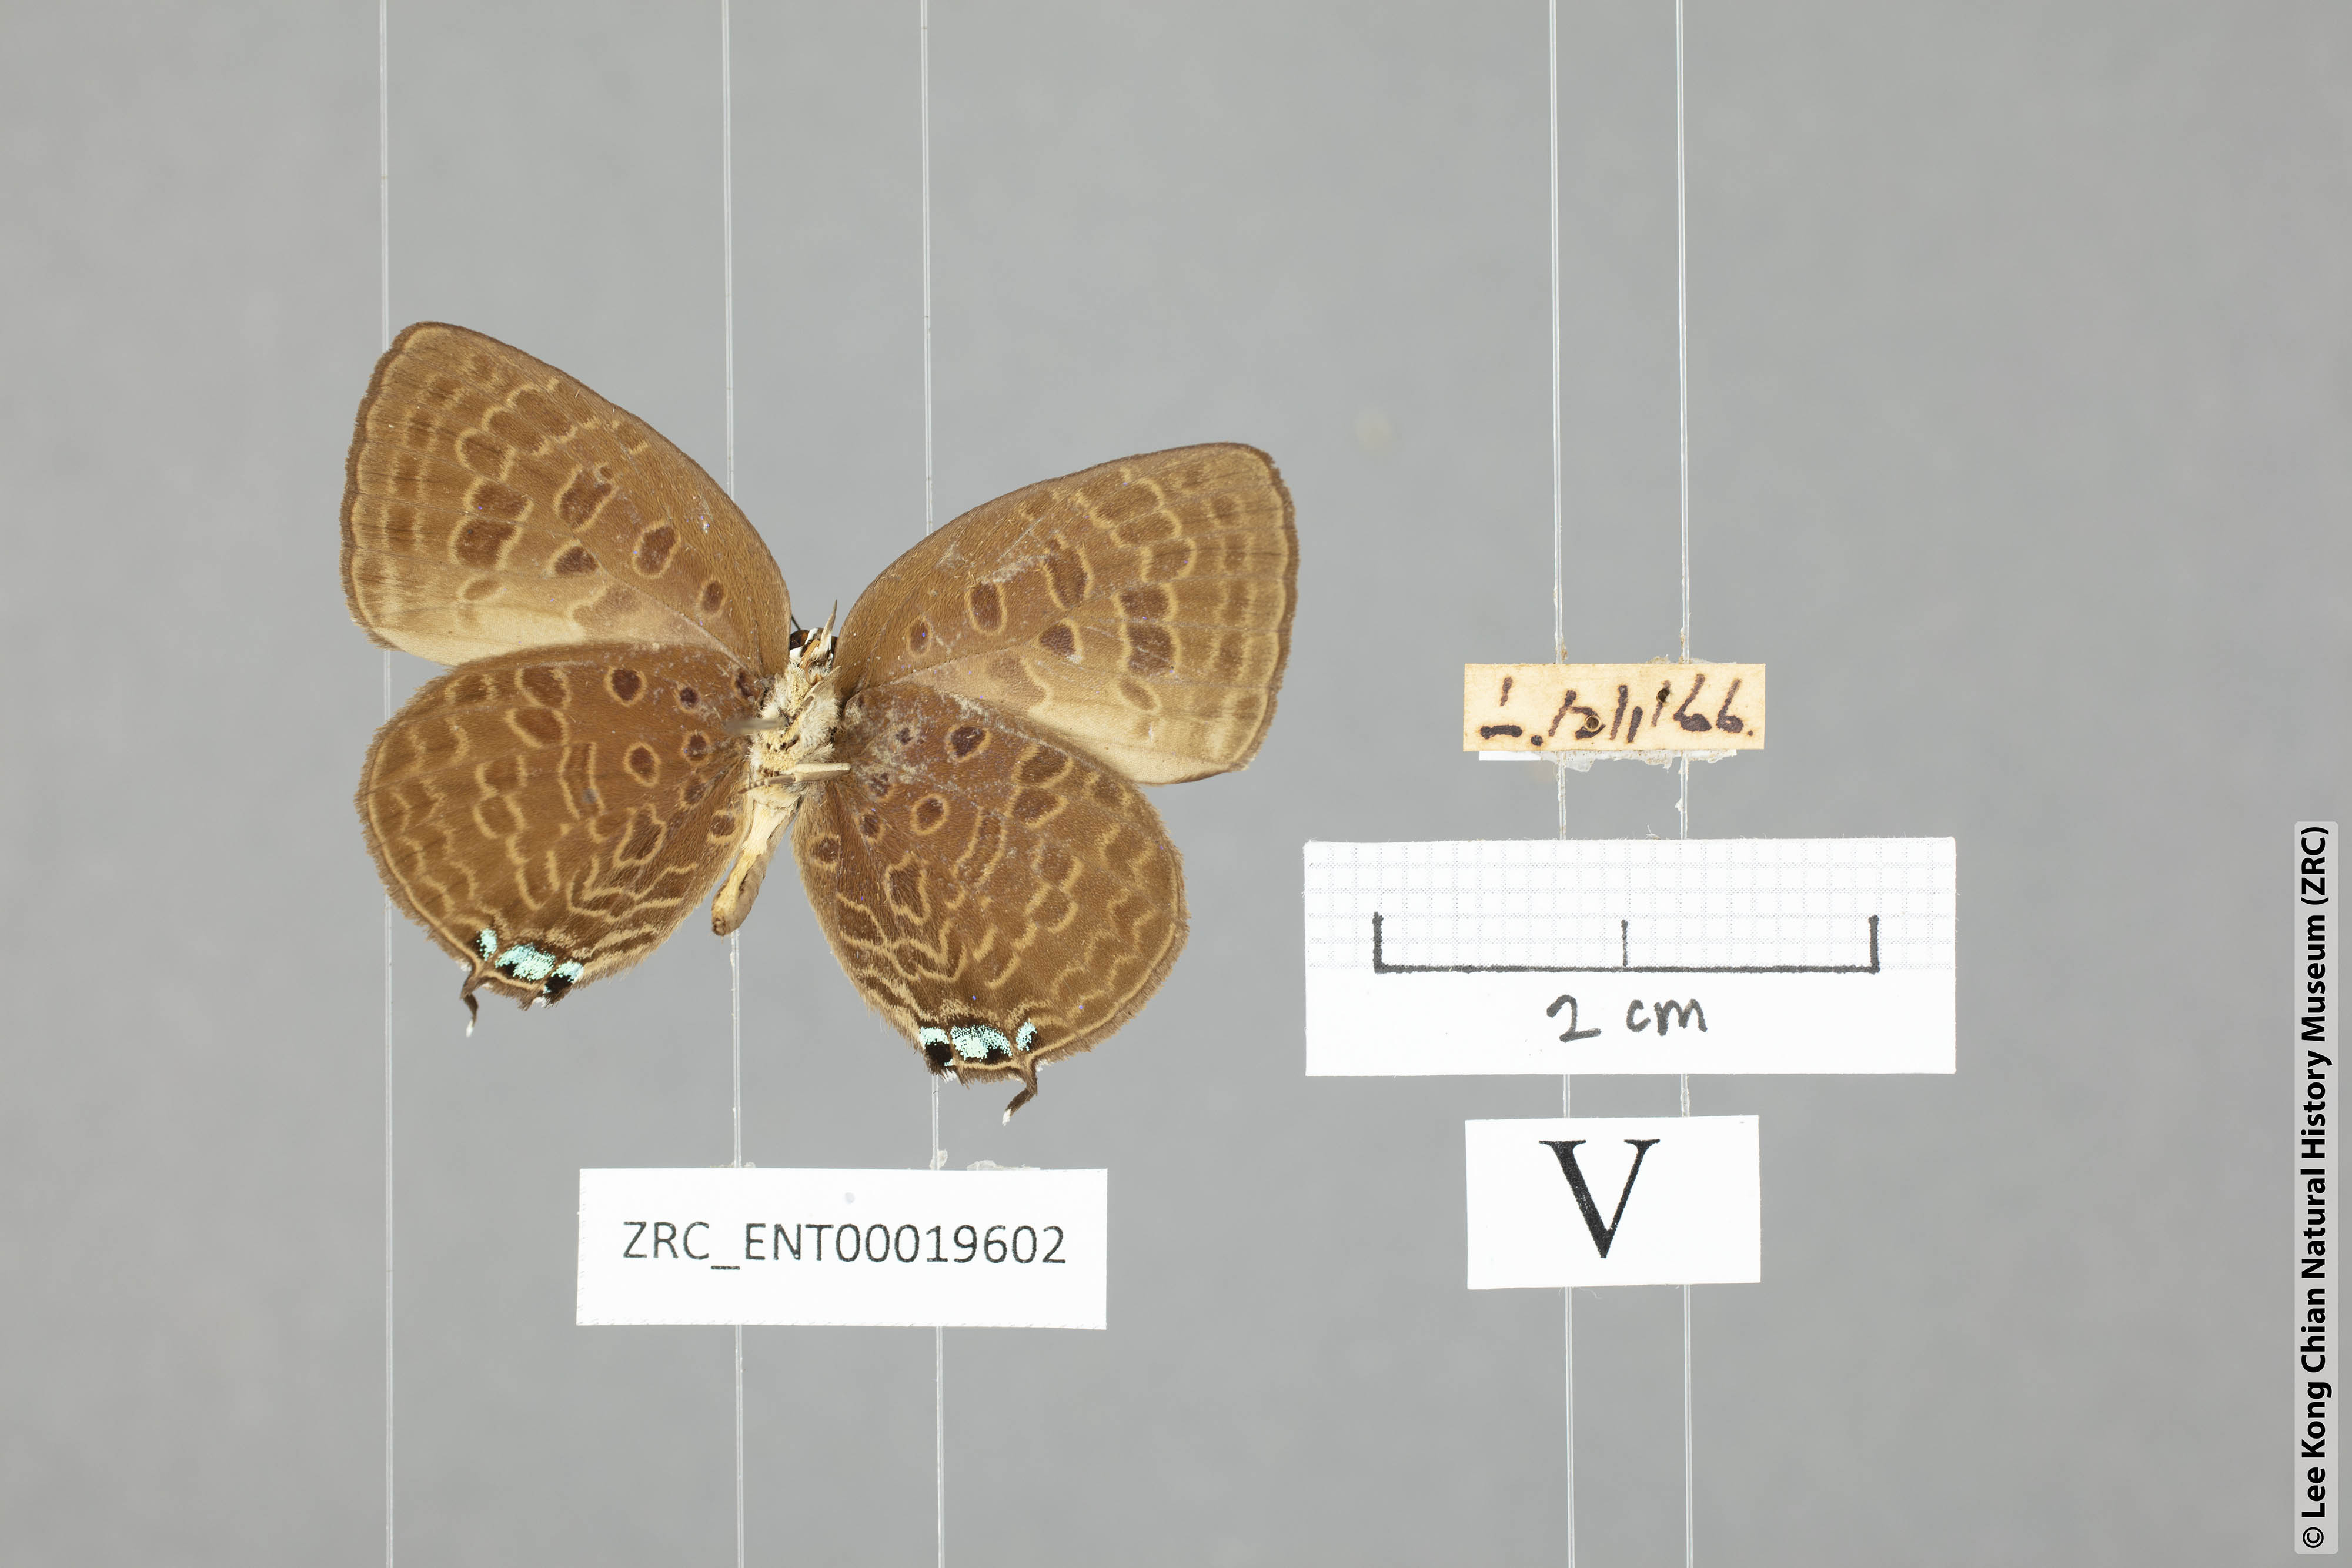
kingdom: Animalia
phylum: Arthropoda
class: Insecta
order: Lepidoptera
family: Lycaenidae
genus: Arhopala
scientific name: Arhopala atosia
